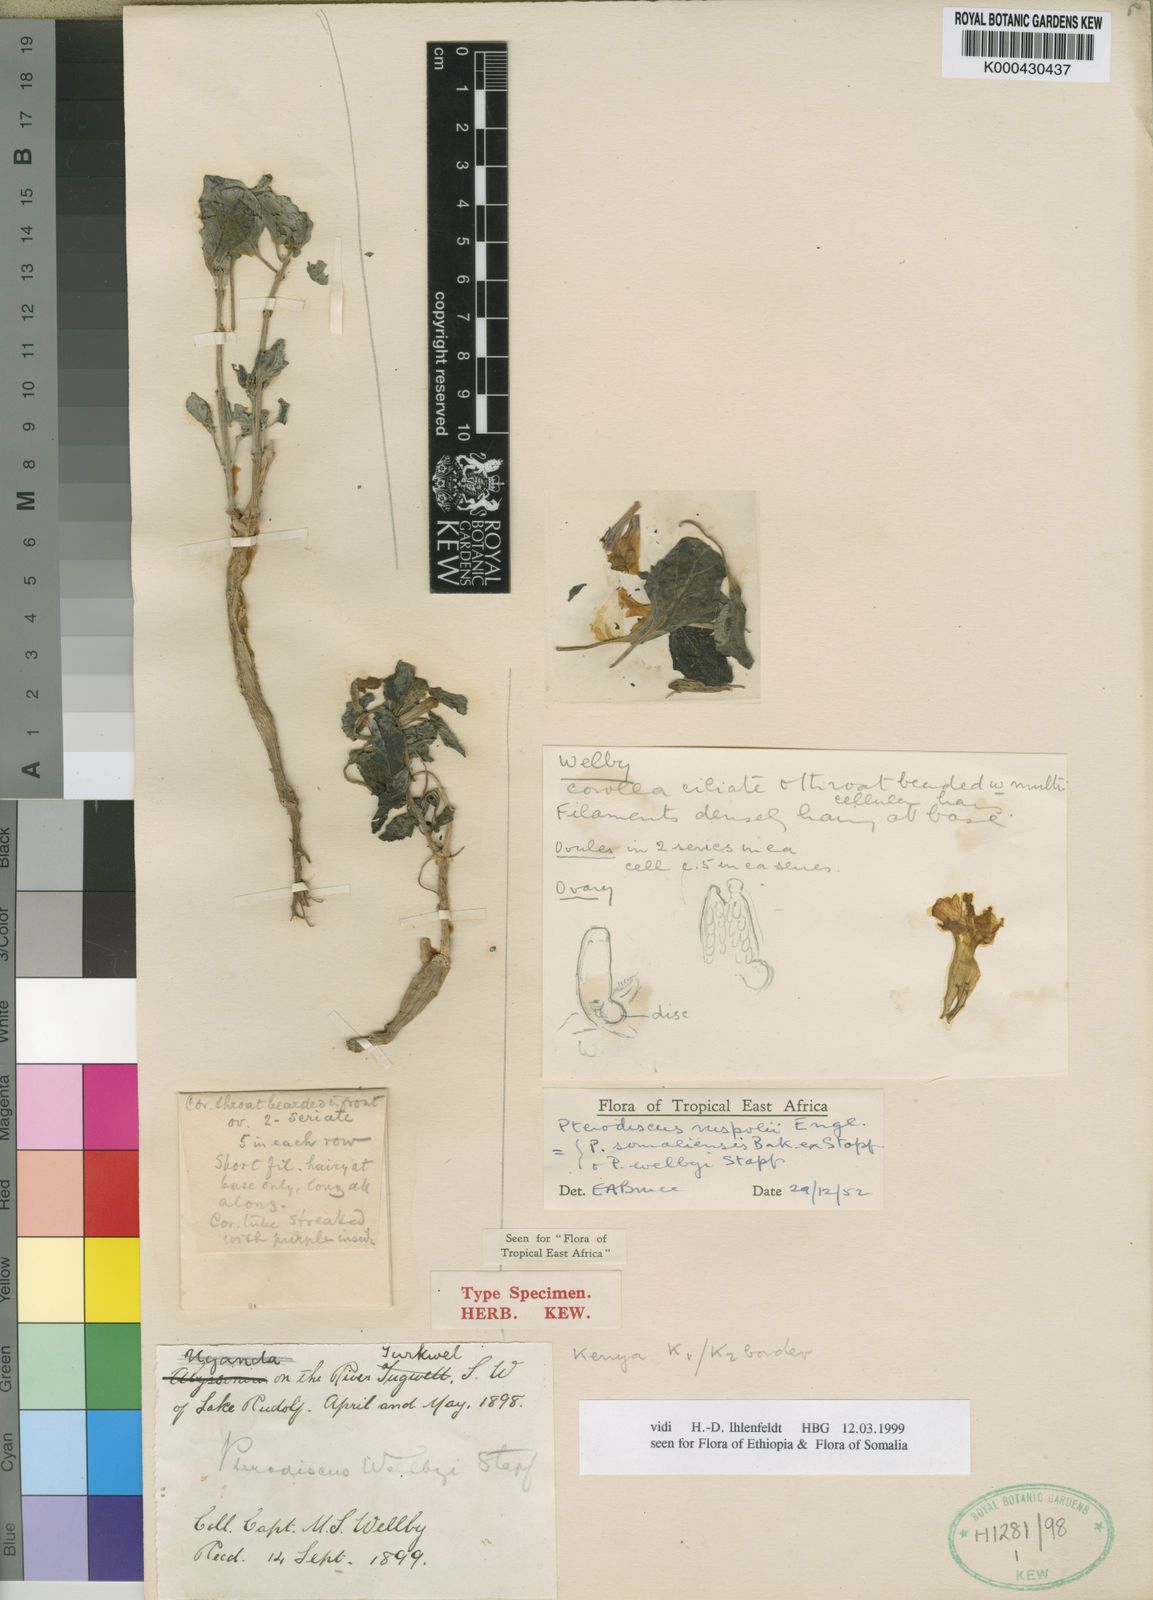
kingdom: Plantae
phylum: Tracheophyta
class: Magnoliopsida
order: Lamiales
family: Pedaliaceae
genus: Pterodiscus
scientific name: Pterodiscus ruspolii
